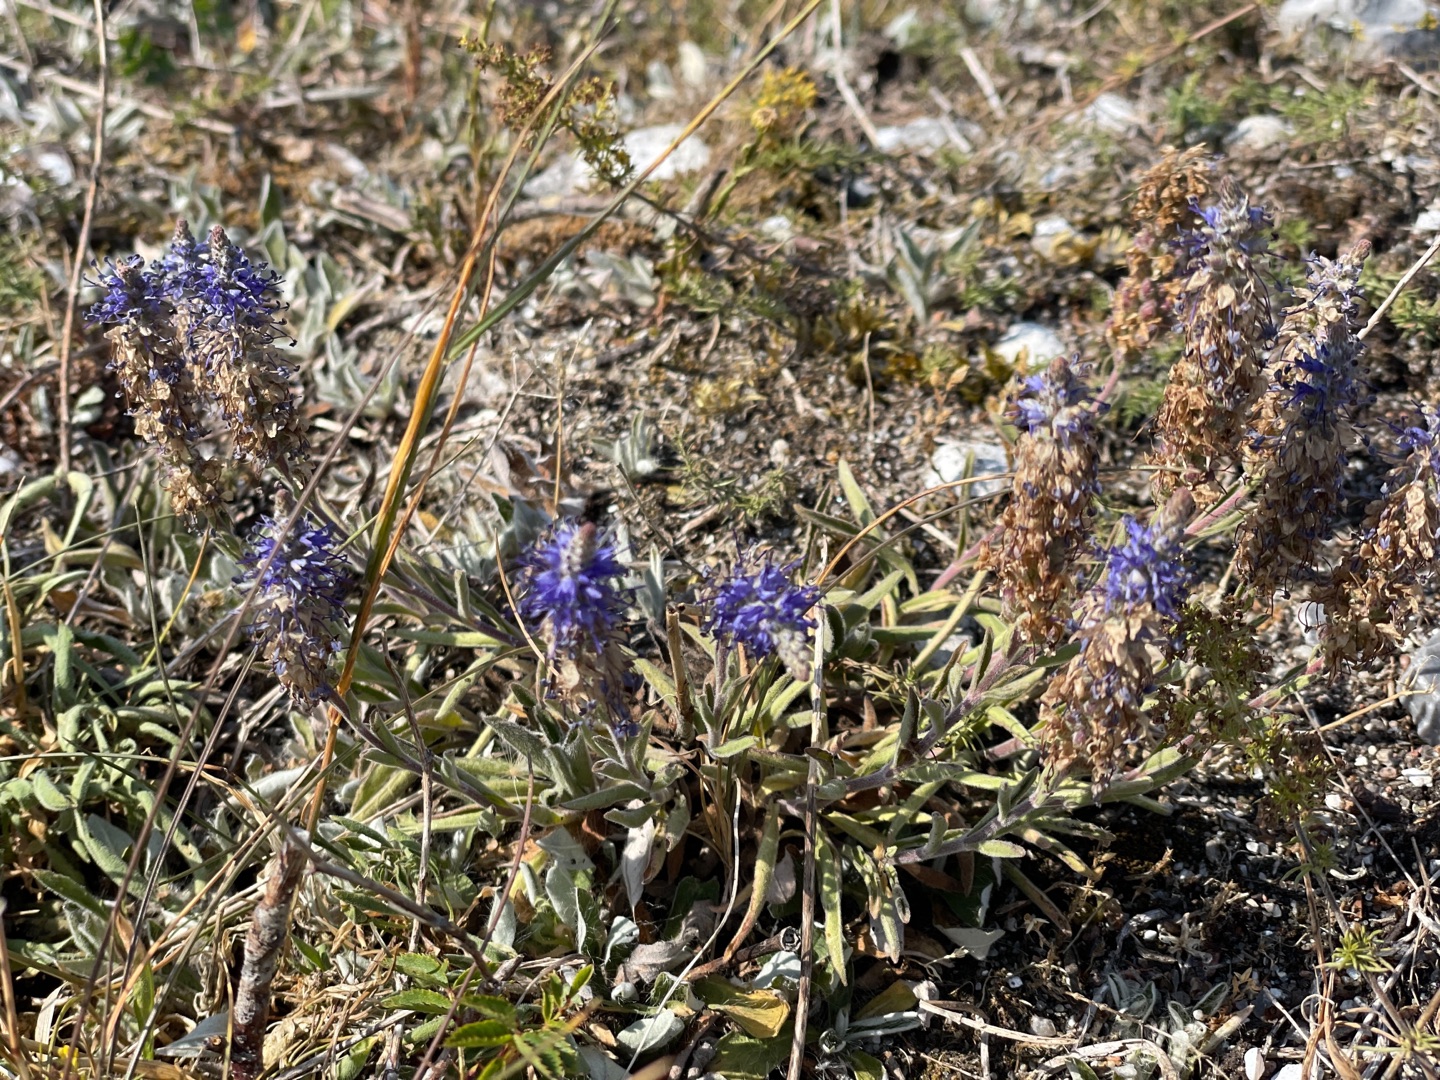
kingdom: Plantae
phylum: Tracheophyta
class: Magnoliopsida
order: Lamiales
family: Plantaginaceae
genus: Veronica
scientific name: Veronica spicata
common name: Aks-ærenpris
